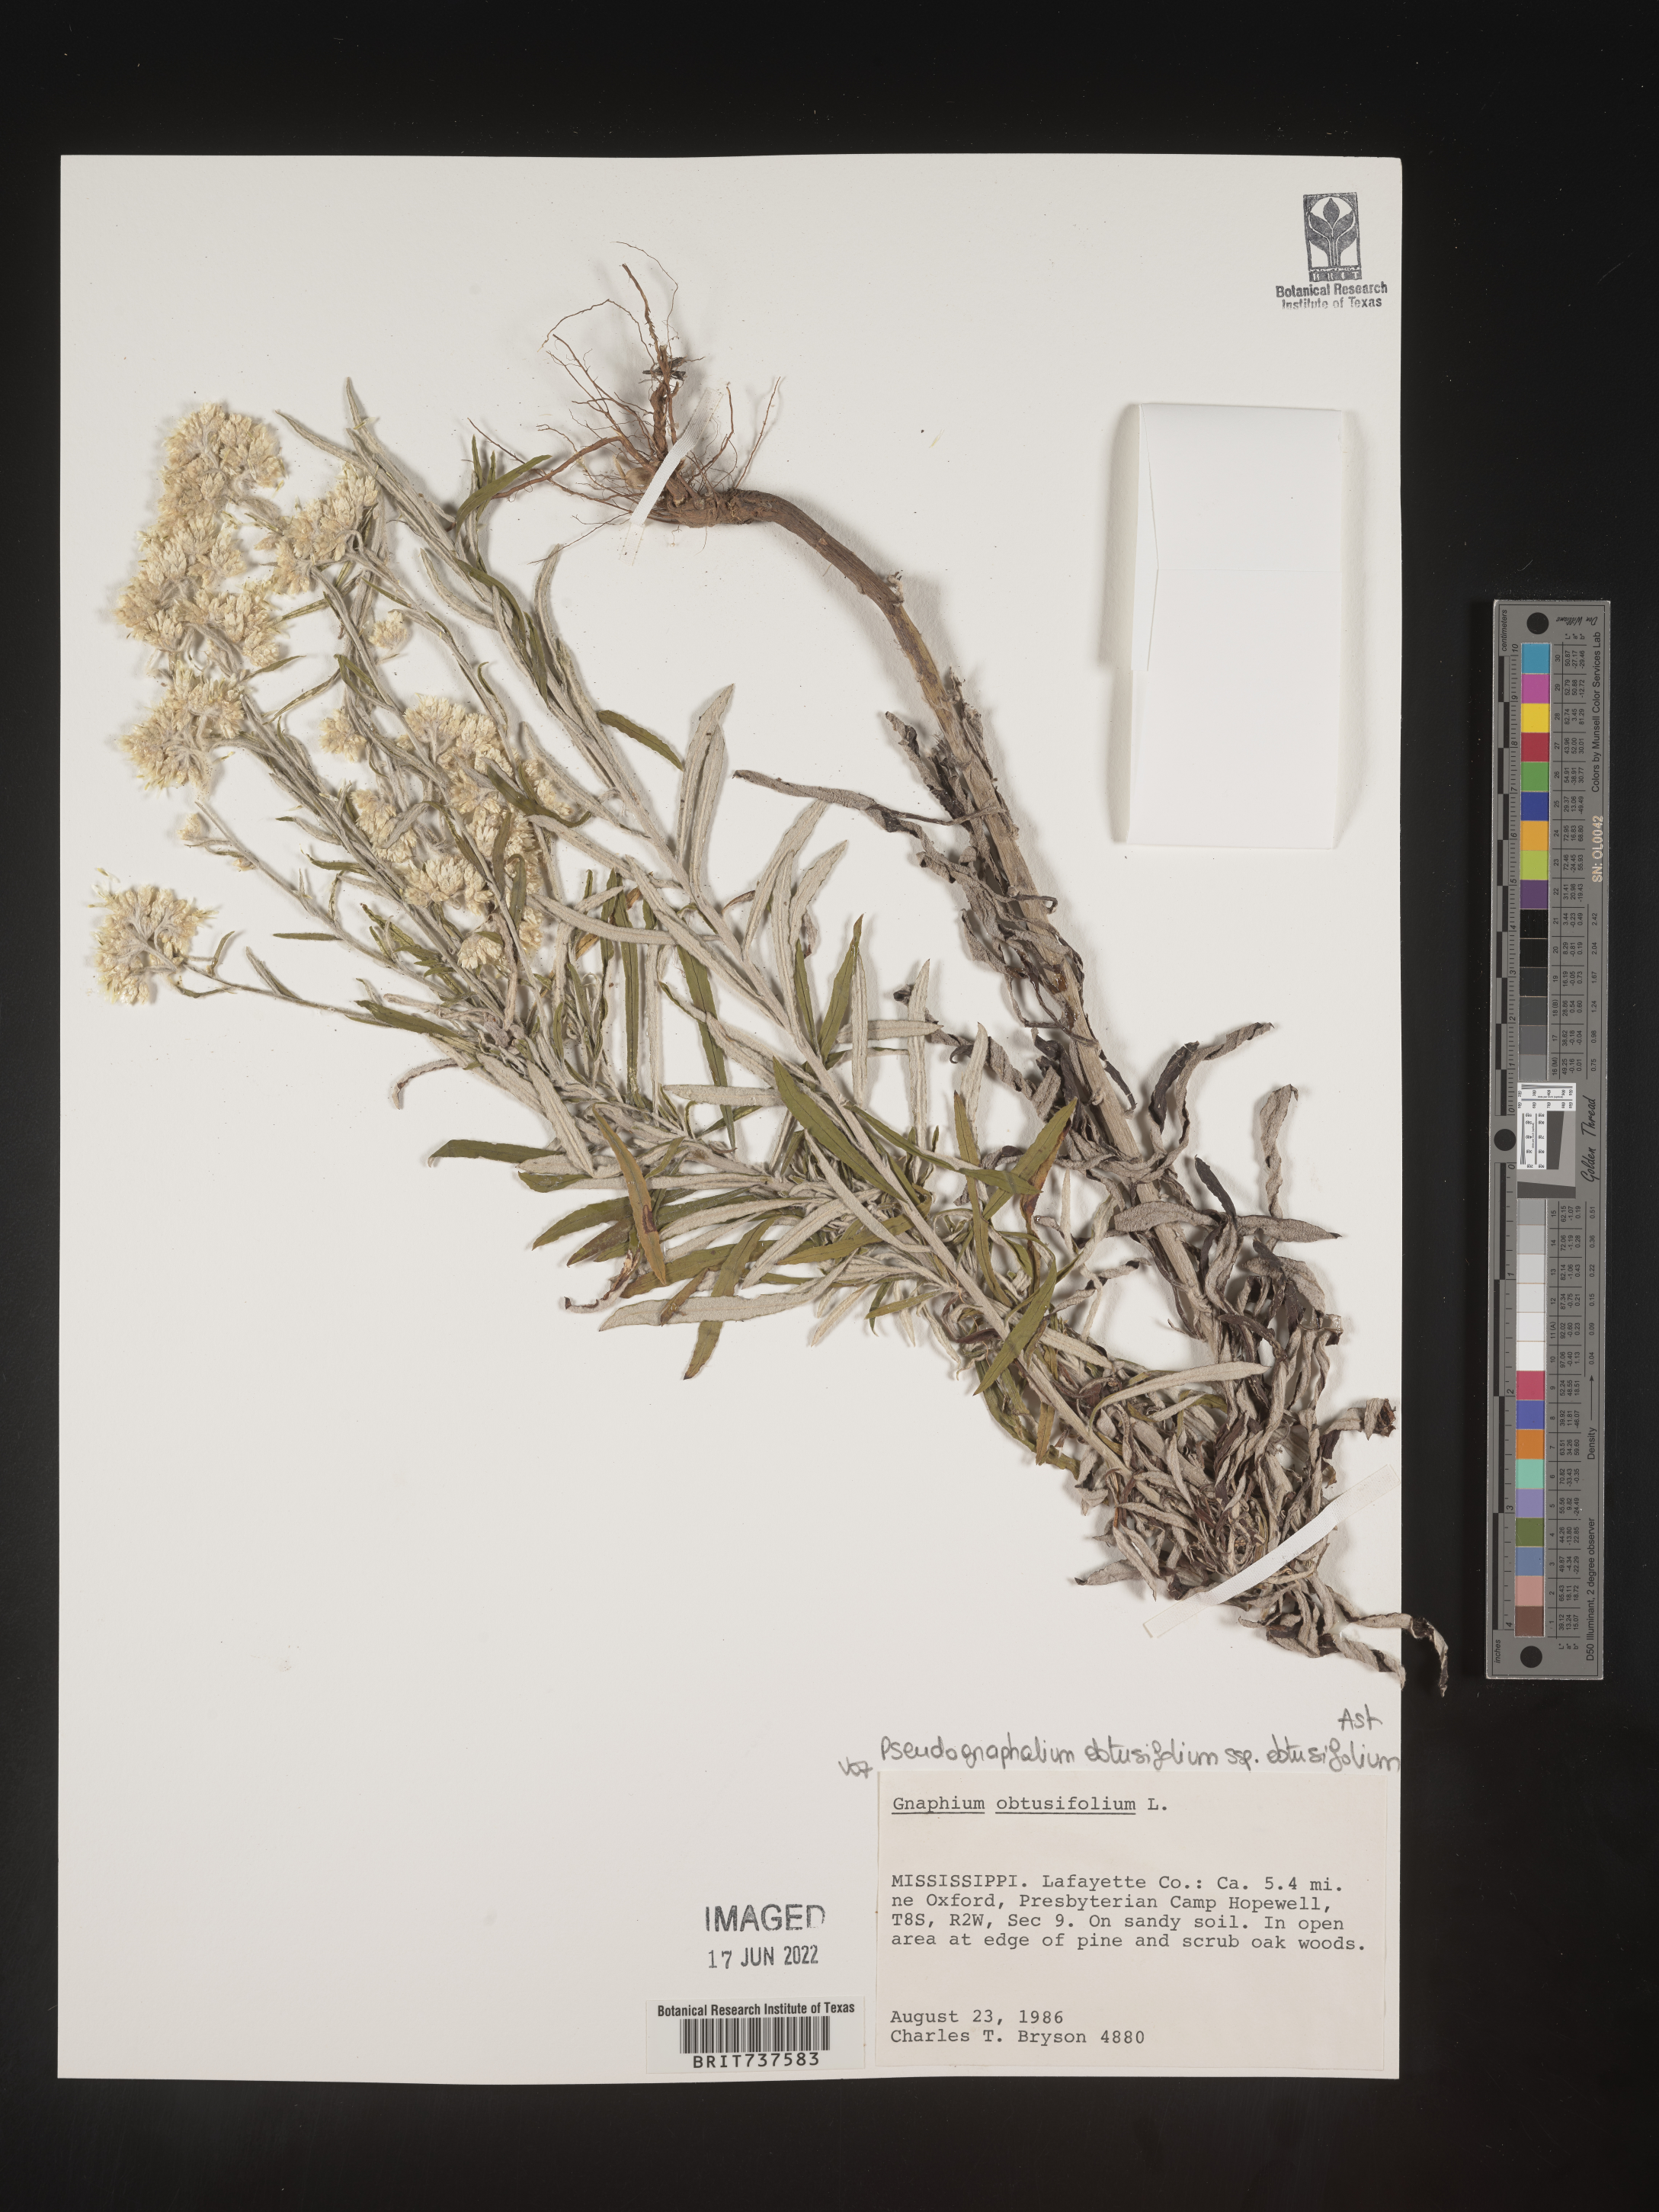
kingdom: Plantae
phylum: Tracheophyta
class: Magnoliopsida
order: Asterales
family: Asteraceae
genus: Pseudognaphalium
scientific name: Pseudognaphalium obtusifolium
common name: Eastern rabbit-tobacco
